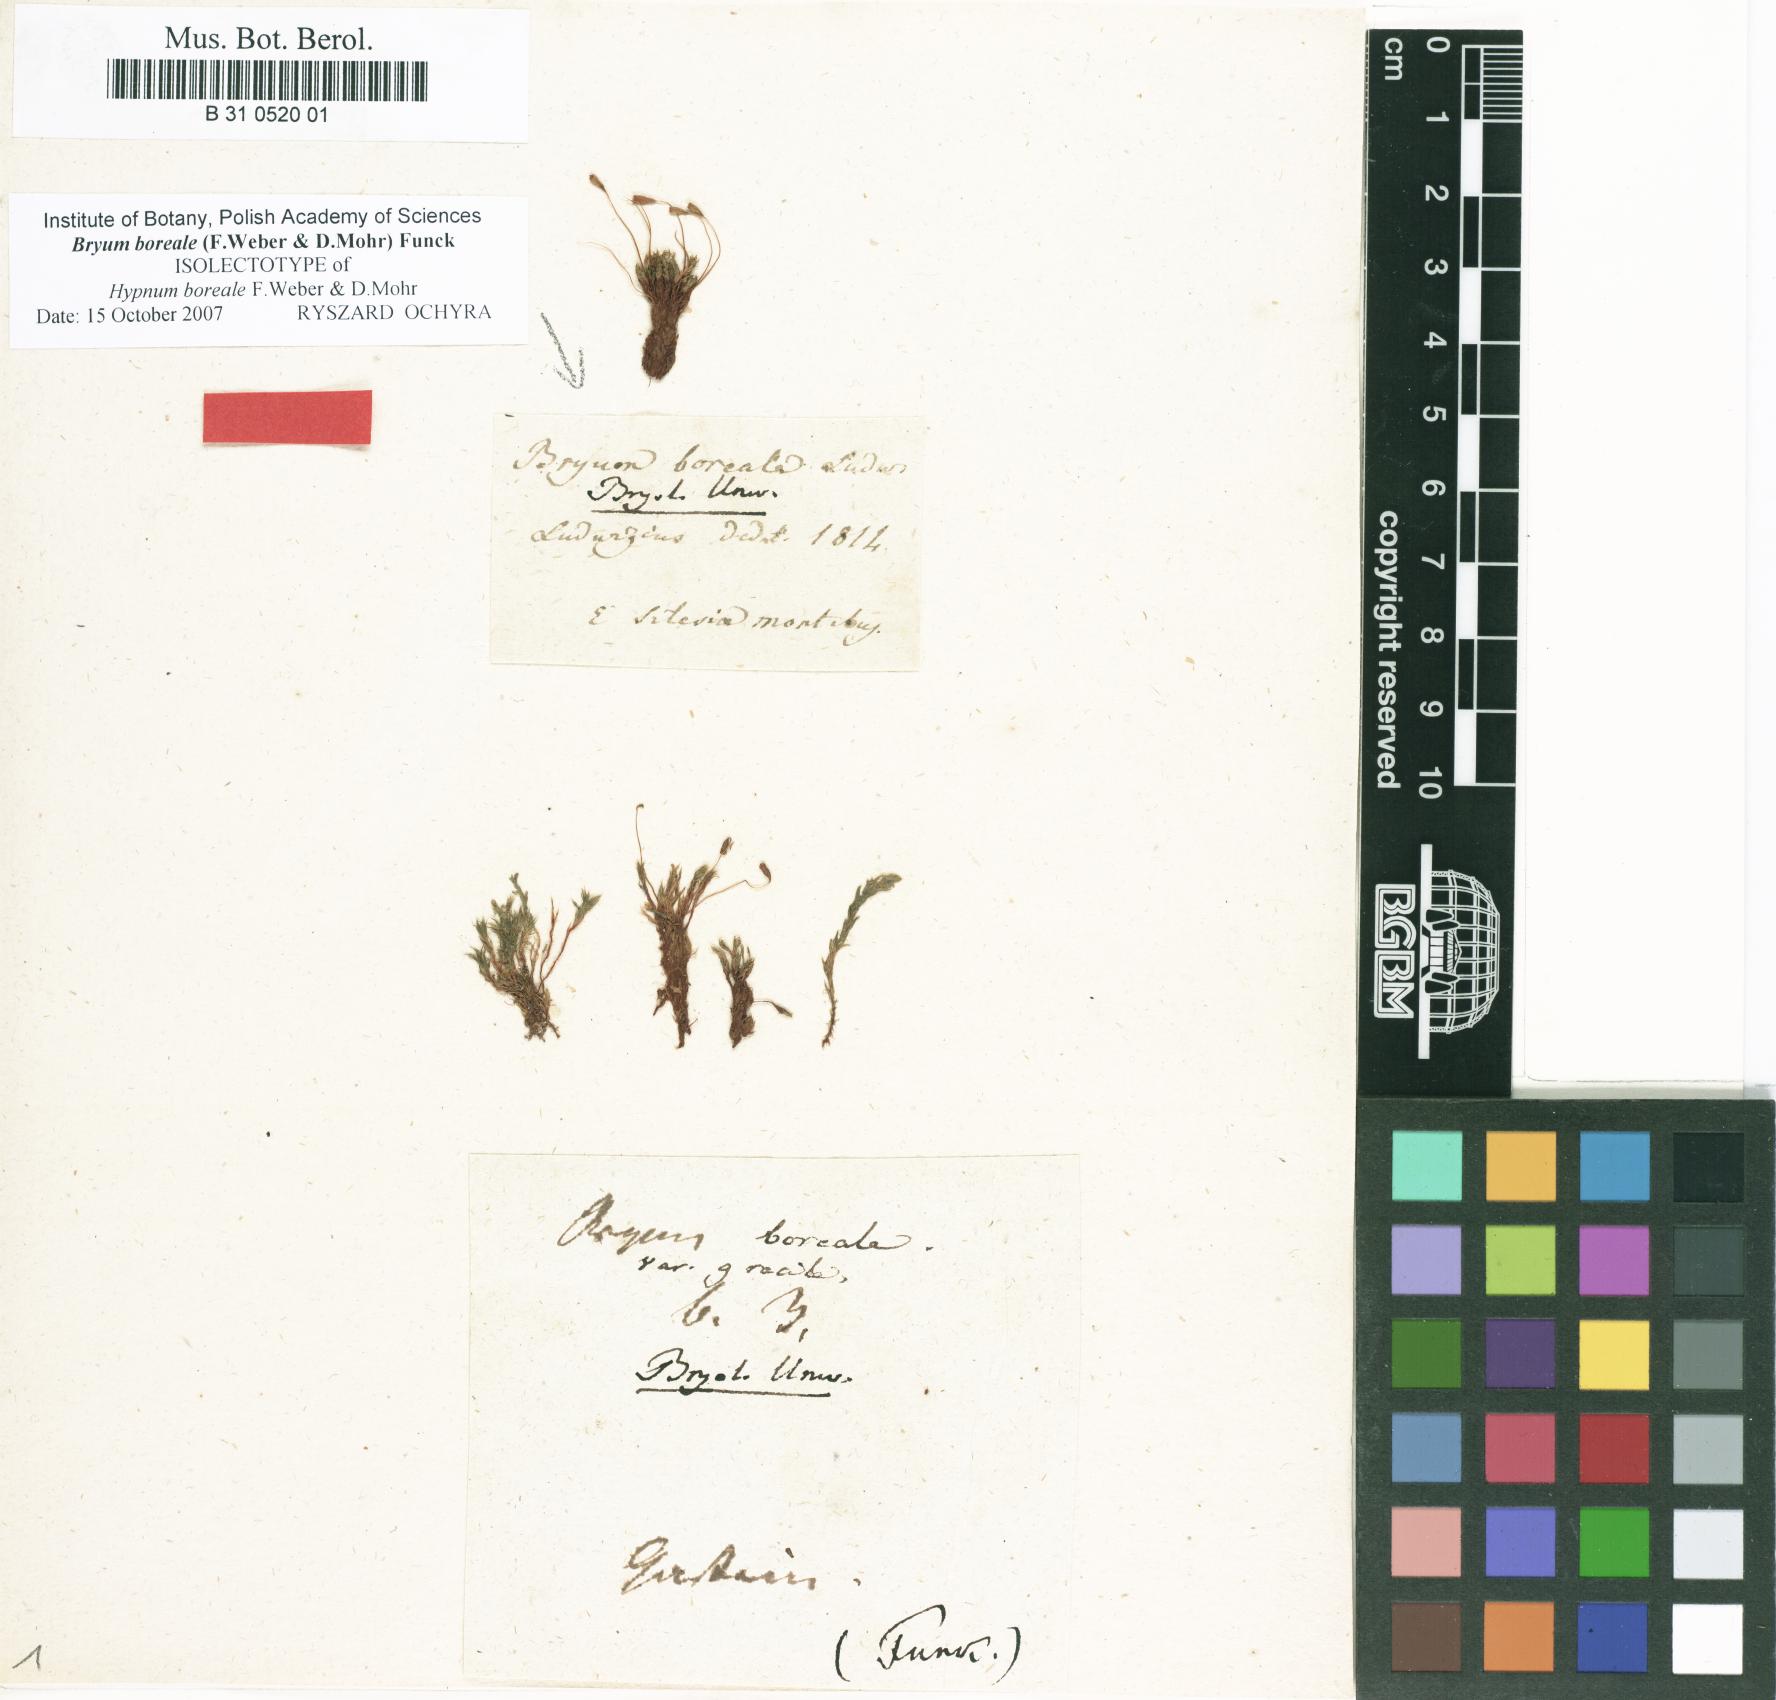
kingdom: Plantae
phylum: Bryophyta
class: Bryopsida
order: Bryales
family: Bryaceae
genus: Ptychostomum
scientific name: Ptychostomum pallescens
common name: Tall-clustered thread-moss
